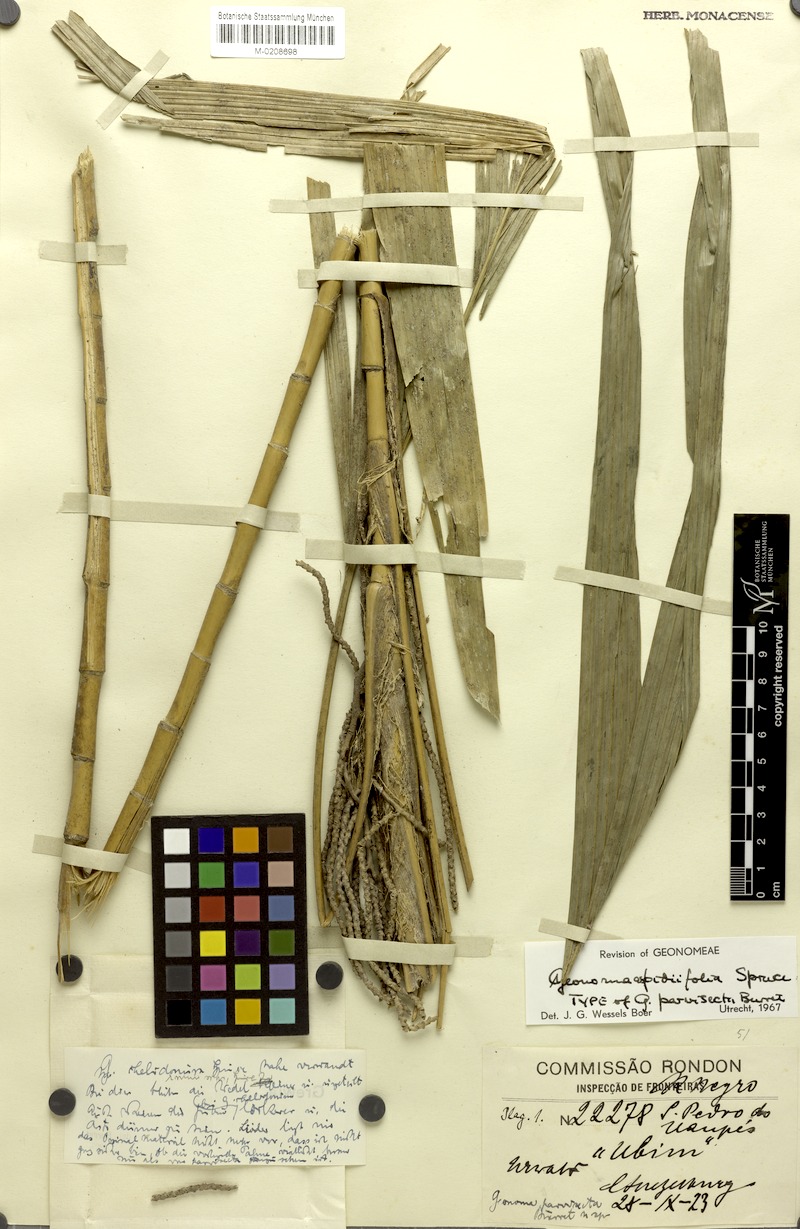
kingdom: Plantae
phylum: Tracheophyta
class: Liliopsida
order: Arecales
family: Arecaceae
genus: Geonoma
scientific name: Geonoma maxima
